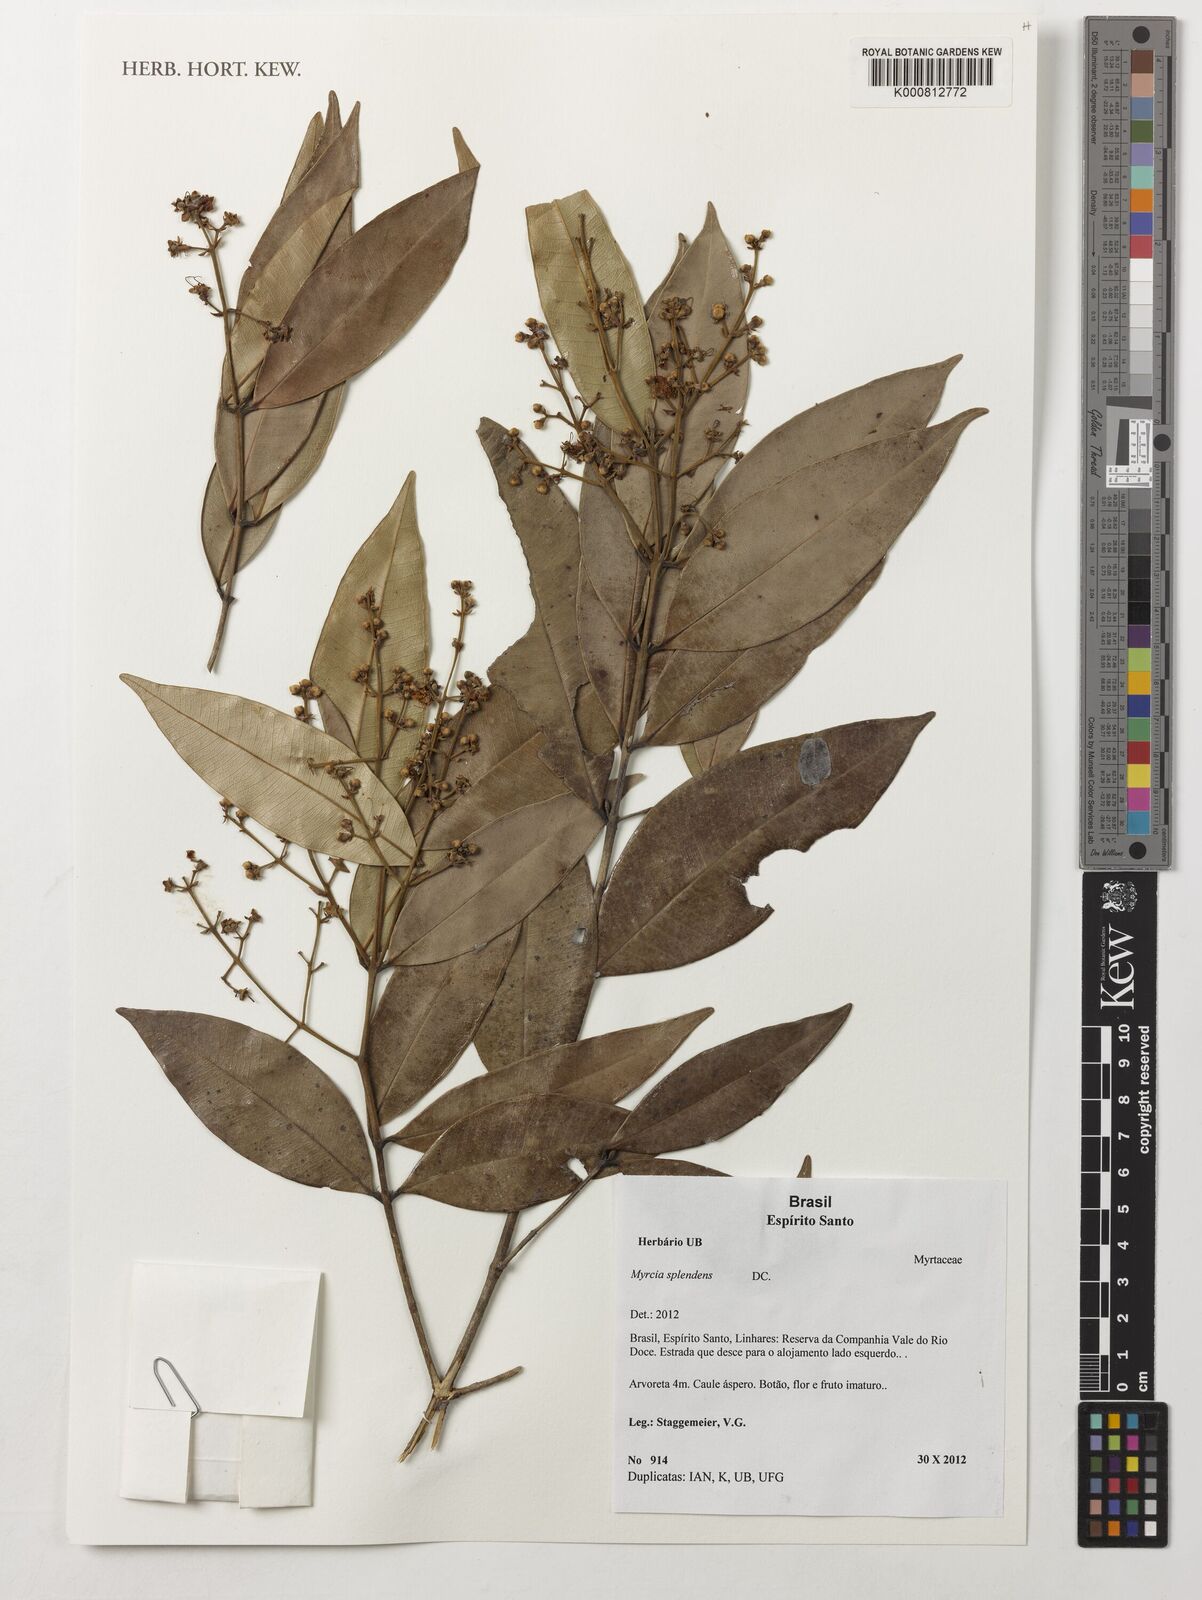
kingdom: Plantae
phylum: Tracheophyta
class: Magnoliopsida
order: Myrtales
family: Myrtaceae
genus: Myrcia
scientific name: Myrcia splendens
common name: Surinam cherry
